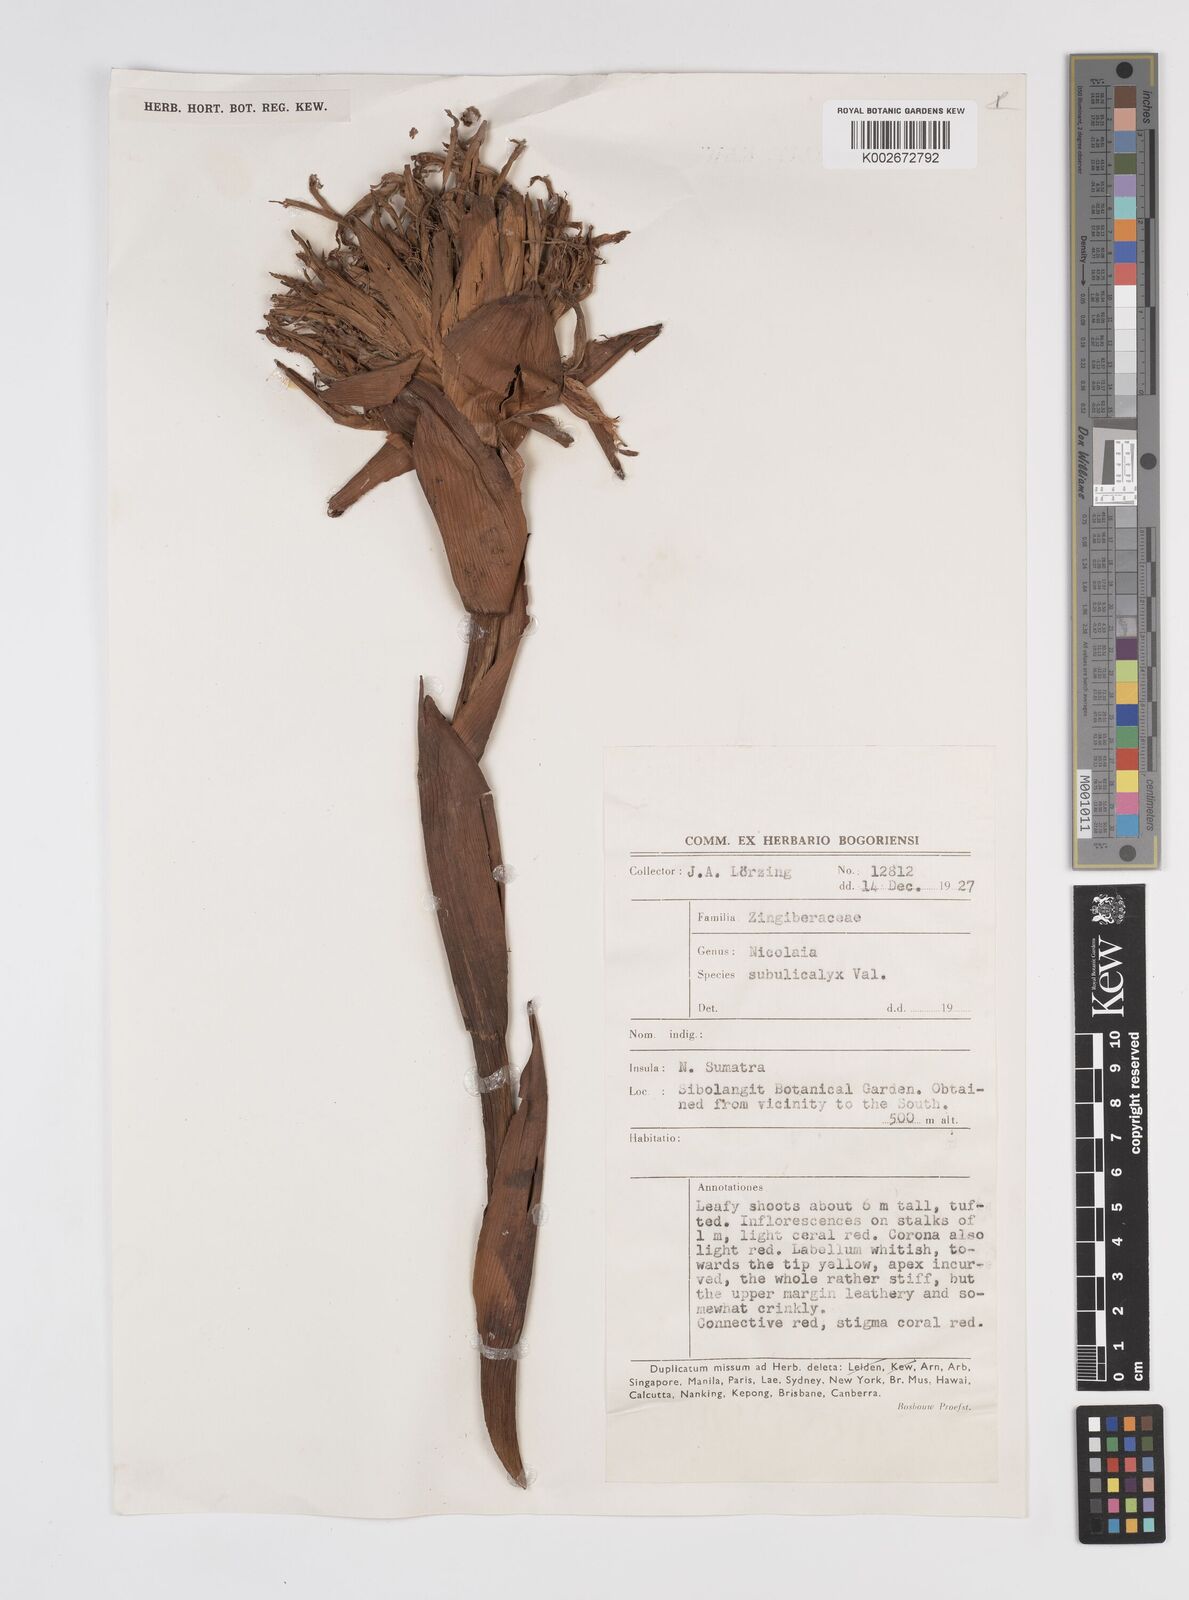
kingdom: Plantae
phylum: Tracheophyta
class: Liliopsida
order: Zingiberales
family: Zingiberaceae
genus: Etlingera
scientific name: Etlingera subulicalyx
